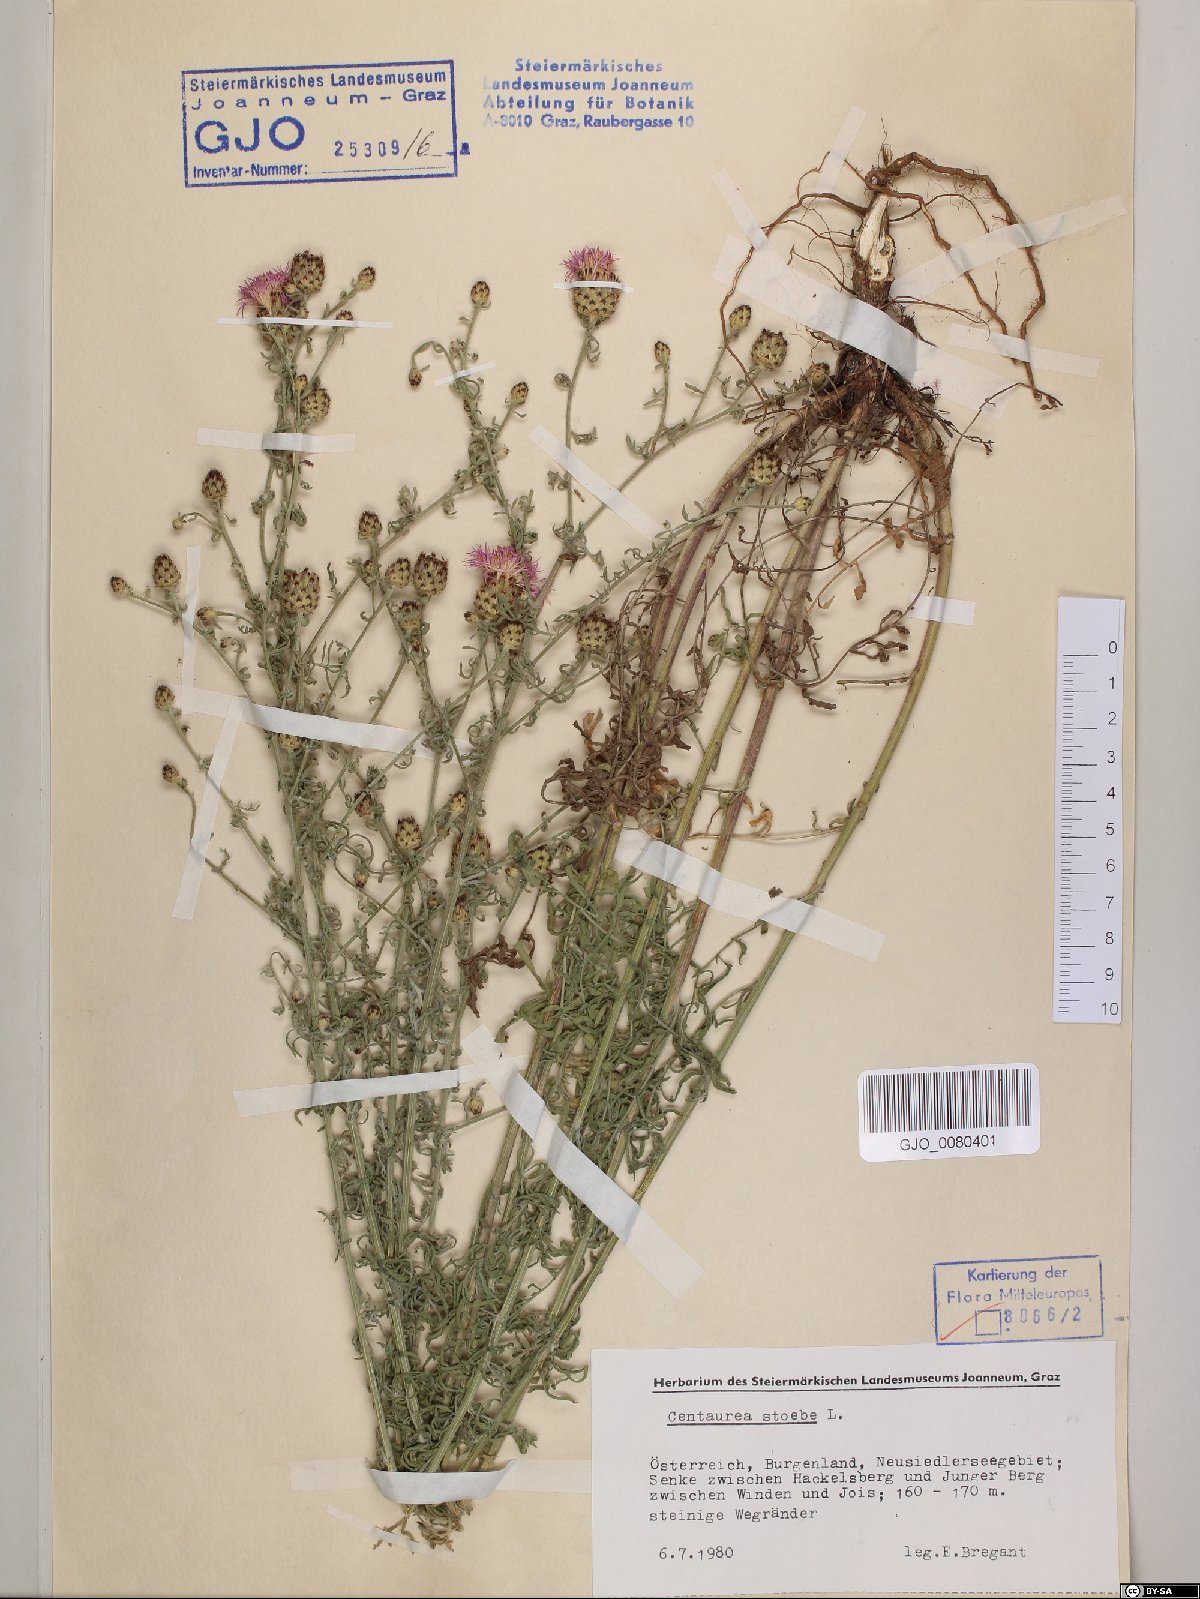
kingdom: Plantae
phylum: Tracheophyta
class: Magnoliopsida
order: Asterales
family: Asteraceae
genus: Centaurea
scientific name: Centaurea stoebe
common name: Spotted knapweed
